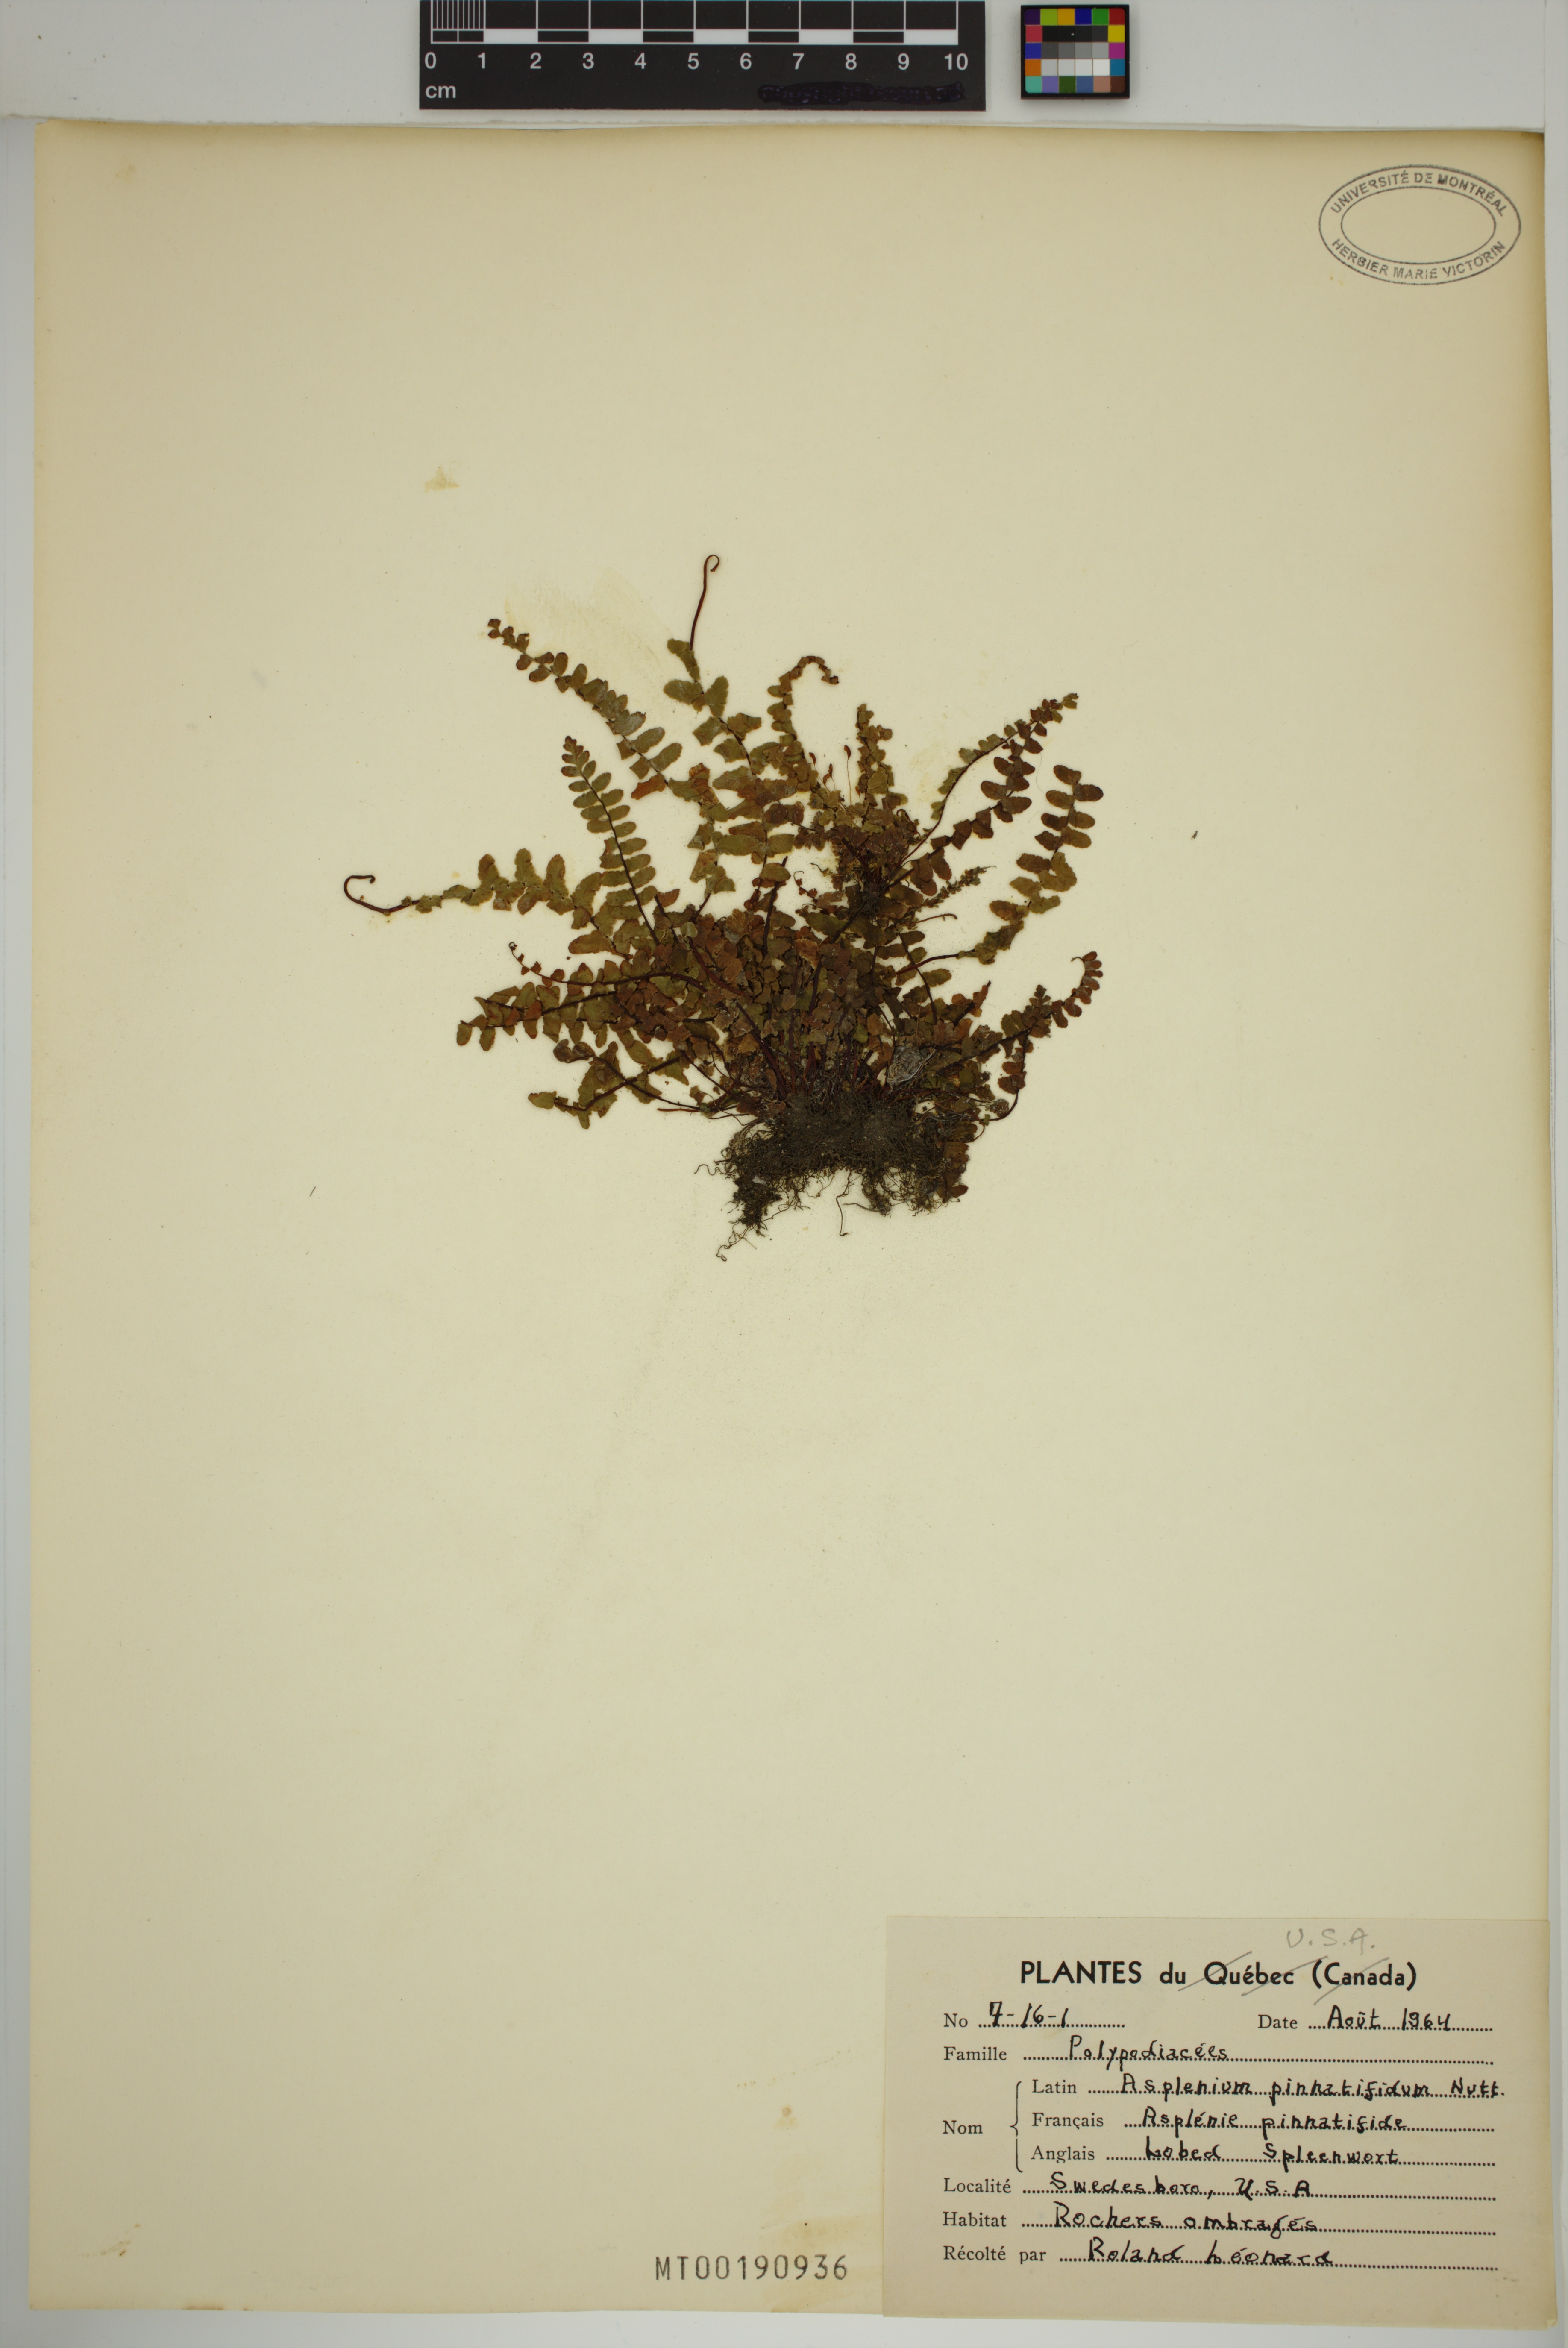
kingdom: Plantae
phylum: Tracheophyta
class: Polypodiopsida
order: Polypodiales
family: Aspleniaceae
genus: Asplenium
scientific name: Asplenium pinnatifidum
